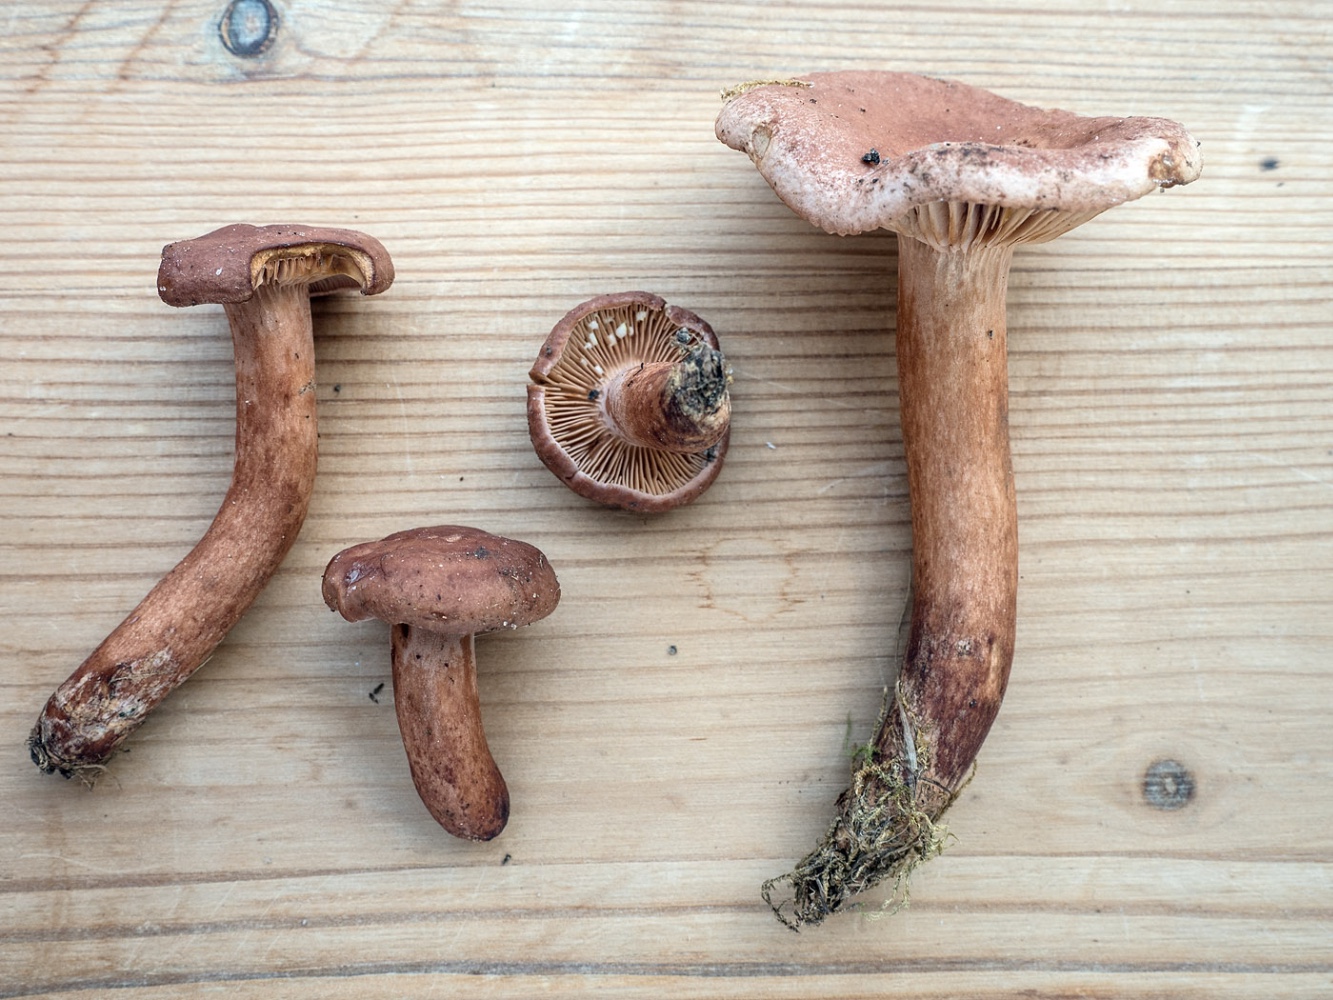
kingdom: Fungi
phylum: Basidiomycota
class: Agaricomycetes
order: Russulales
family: Russulaceae
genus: Lactarius
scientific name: Lactarius decipiens
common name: pelargonie-mælkehat
